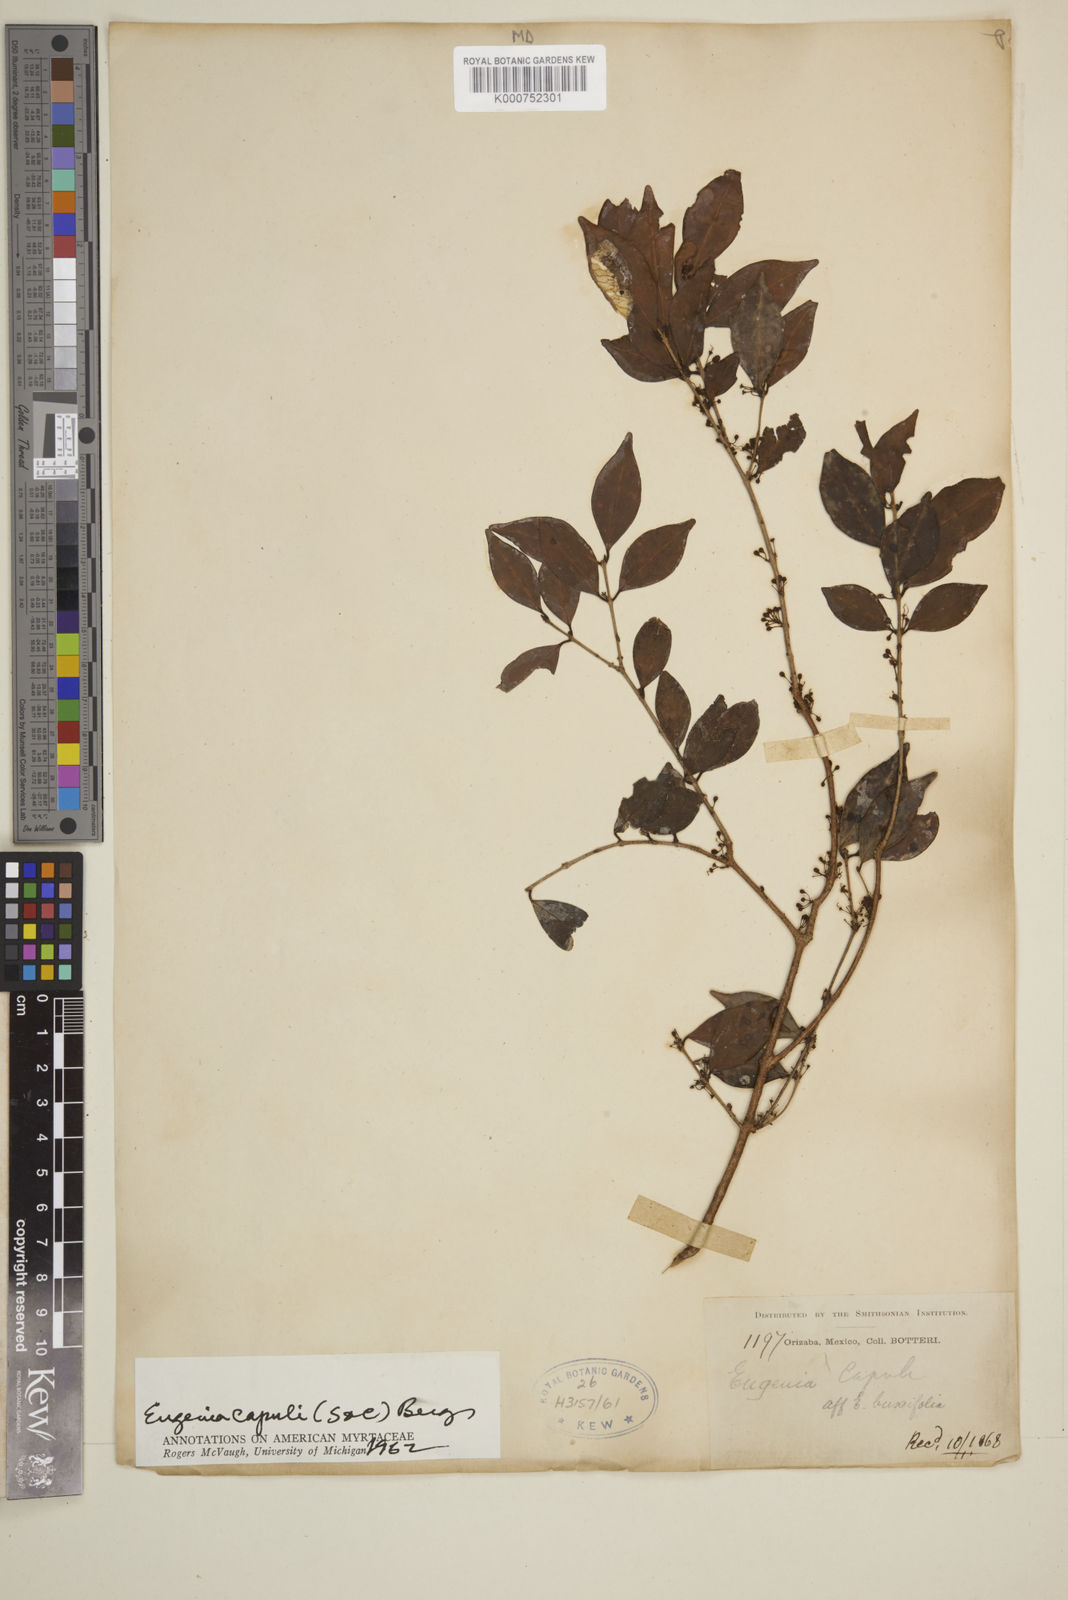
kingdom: Plantae
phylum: Tracheophyta
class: Magnoliopsida
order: Myrtales
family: Myrtaceae
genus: Eugenia
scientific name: Eugenia capuli
